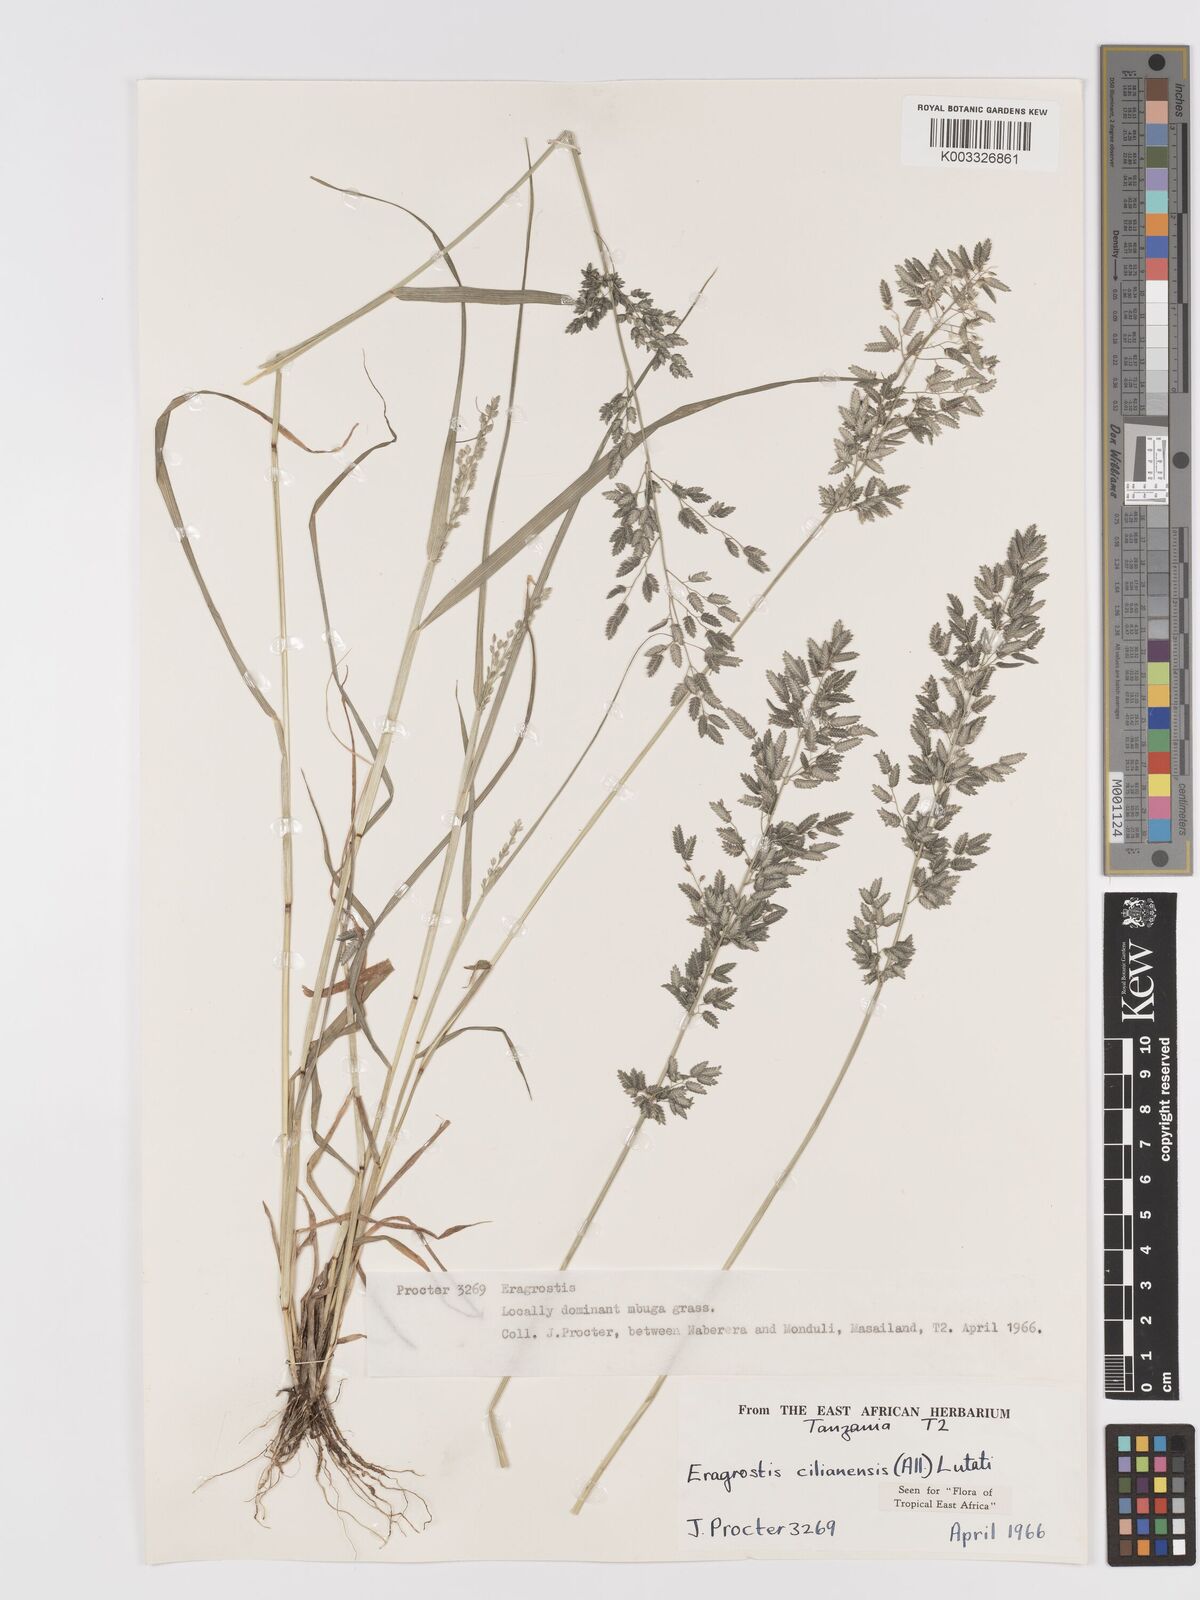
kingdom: Plantae
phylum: Tracheophyta
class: Liliopsida
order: Poales
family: Poaceae
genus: Eragrostis
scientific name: Eragrostis cilianensis
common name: Stinkgrass
